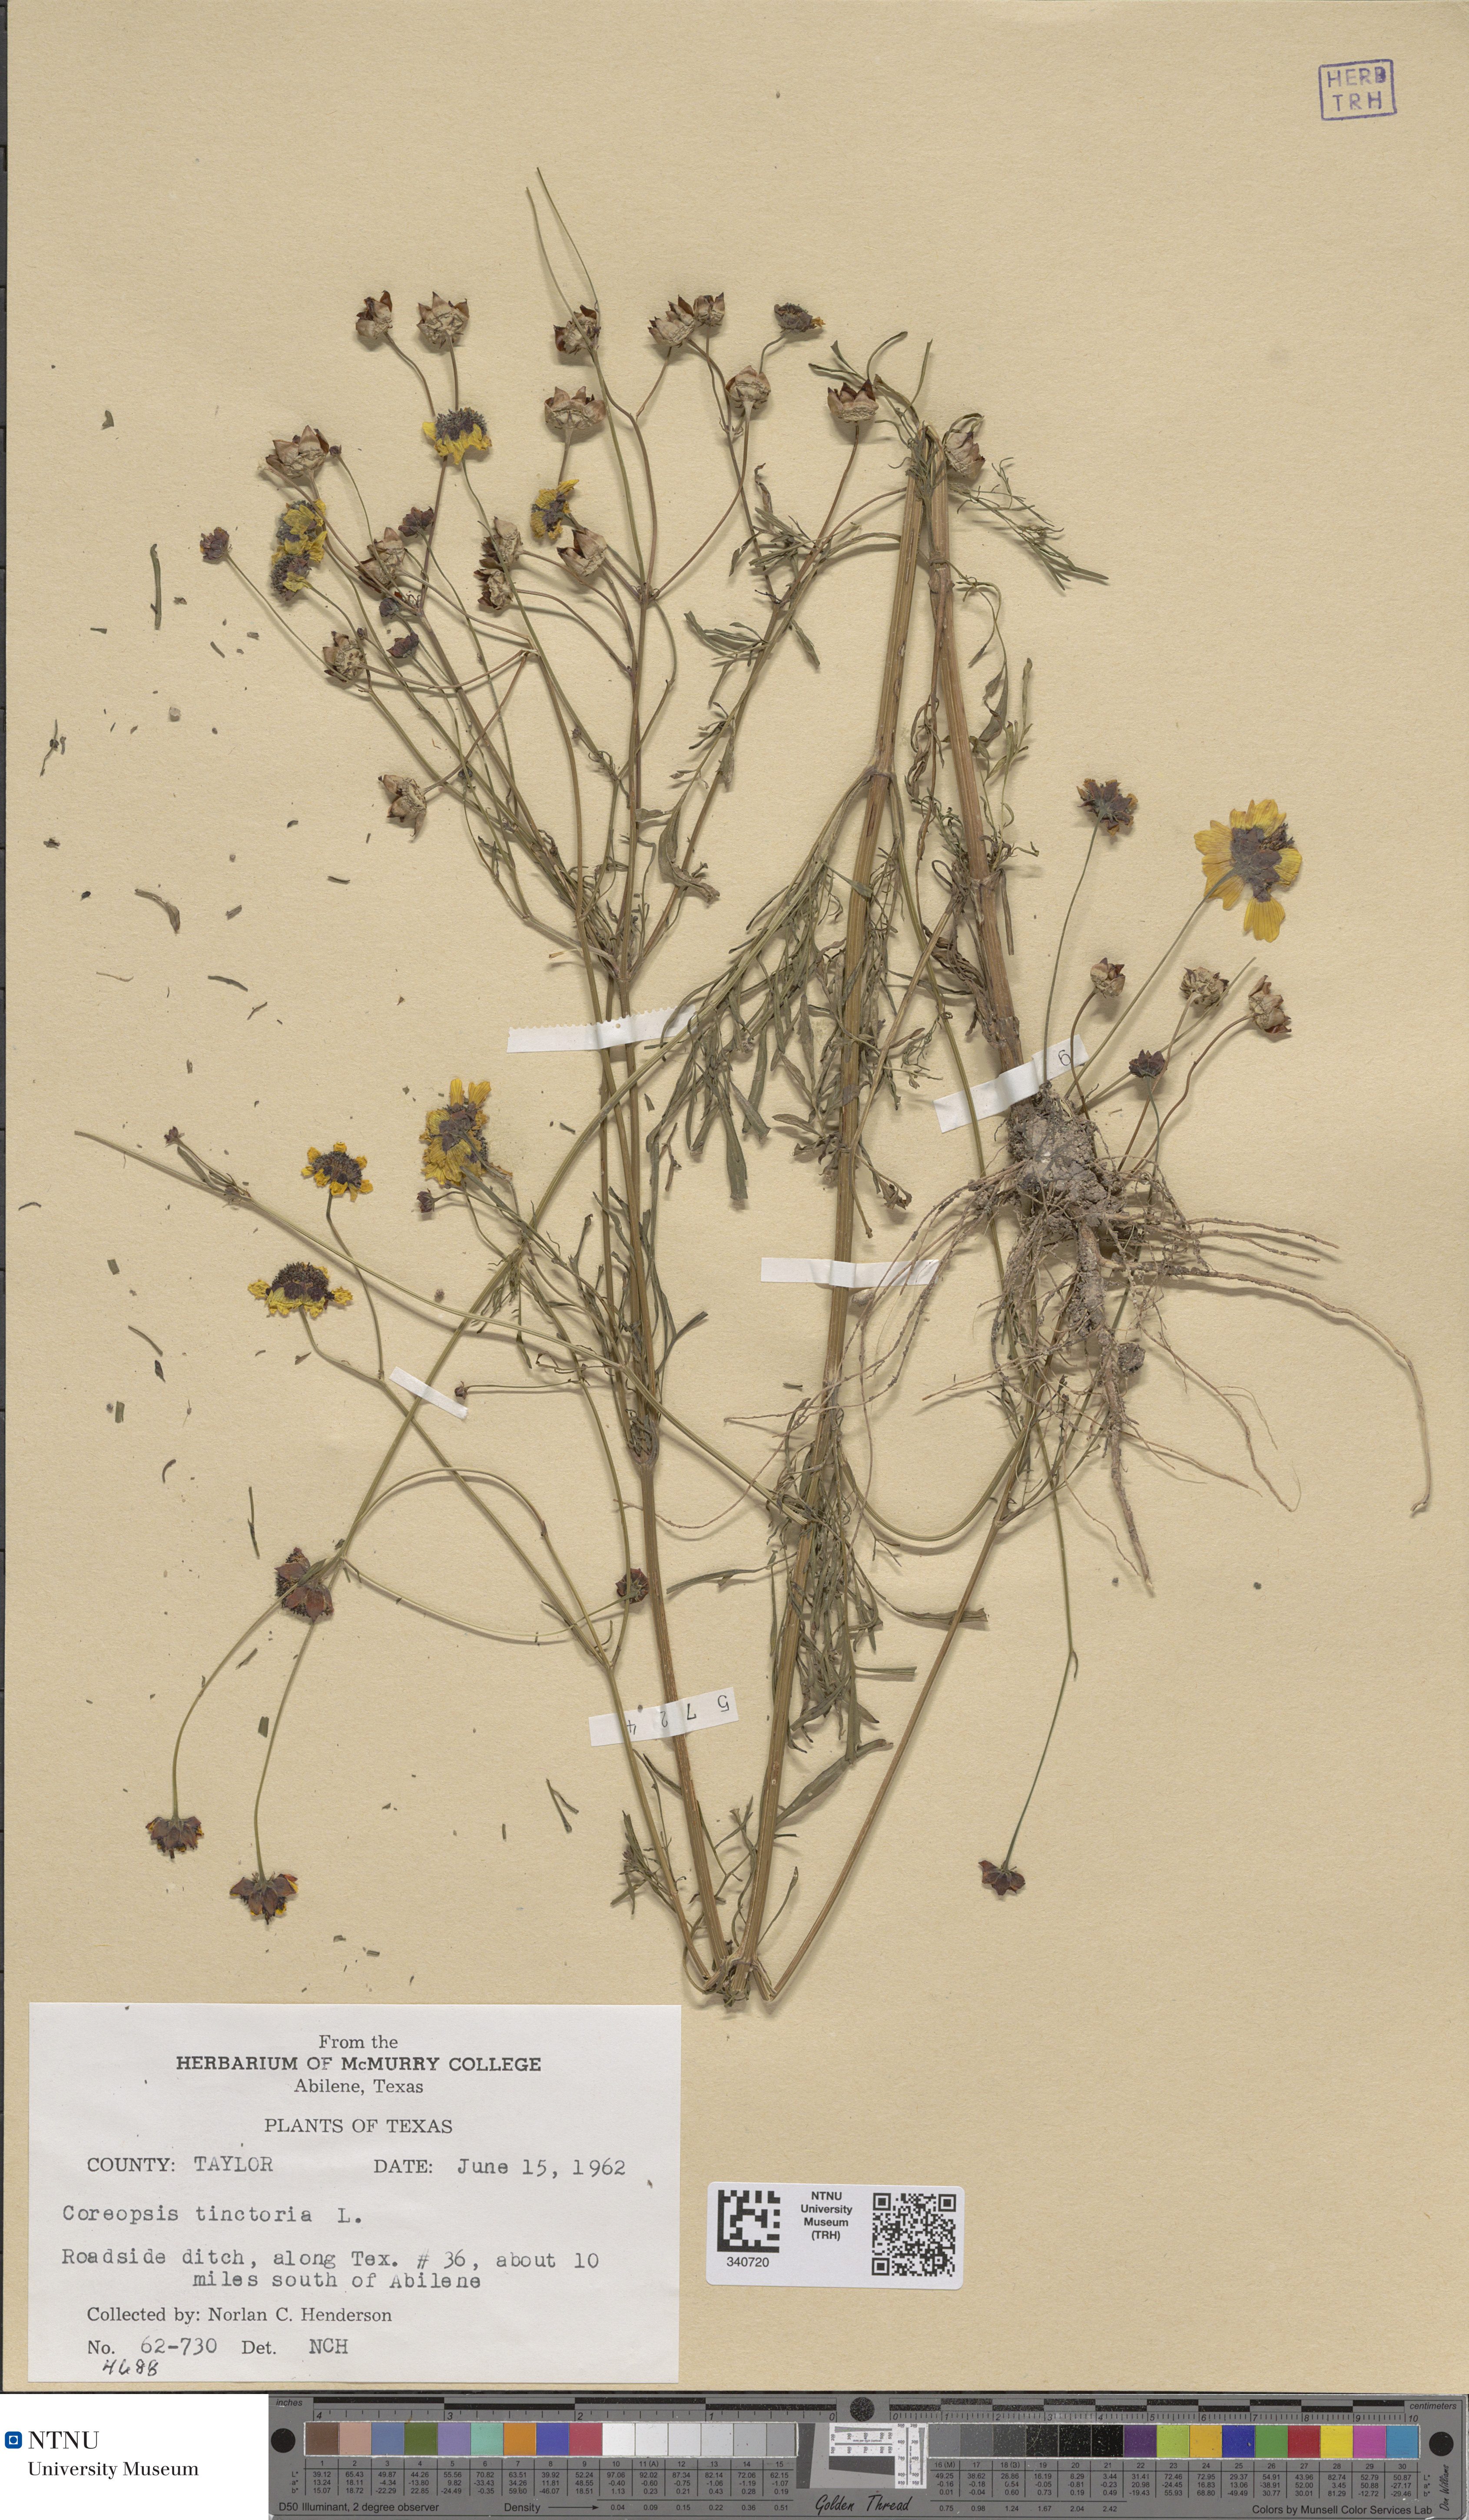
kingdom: Plantae
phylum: Tracheophyta
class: Magnoliopsida
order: Asterales
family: Asteraceae
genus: Coreopsis
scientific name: Coreopsis tinctoria
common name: Garden tickseed
